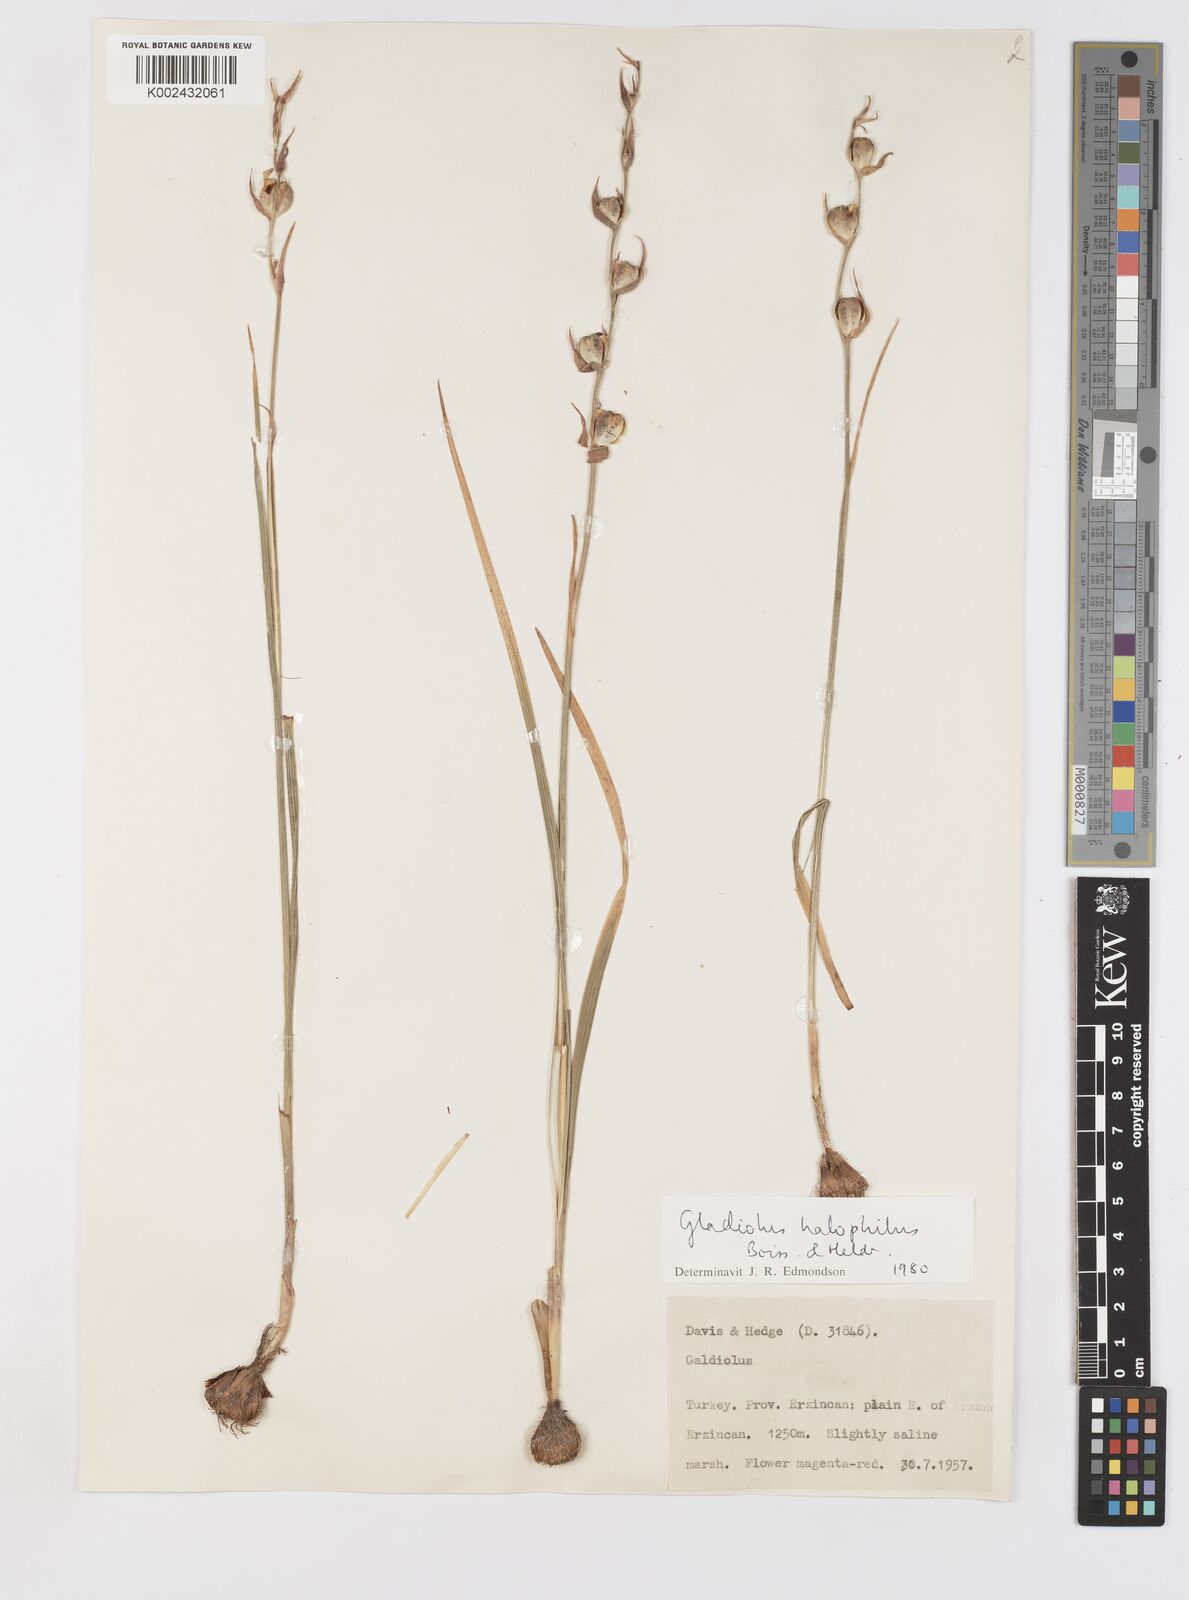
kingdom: Plantae
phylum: Tracheophyta
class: Liliopsida
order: Asparagales
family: Iridaceae
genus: Gladiolus
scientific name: Gladiolus halophilus
